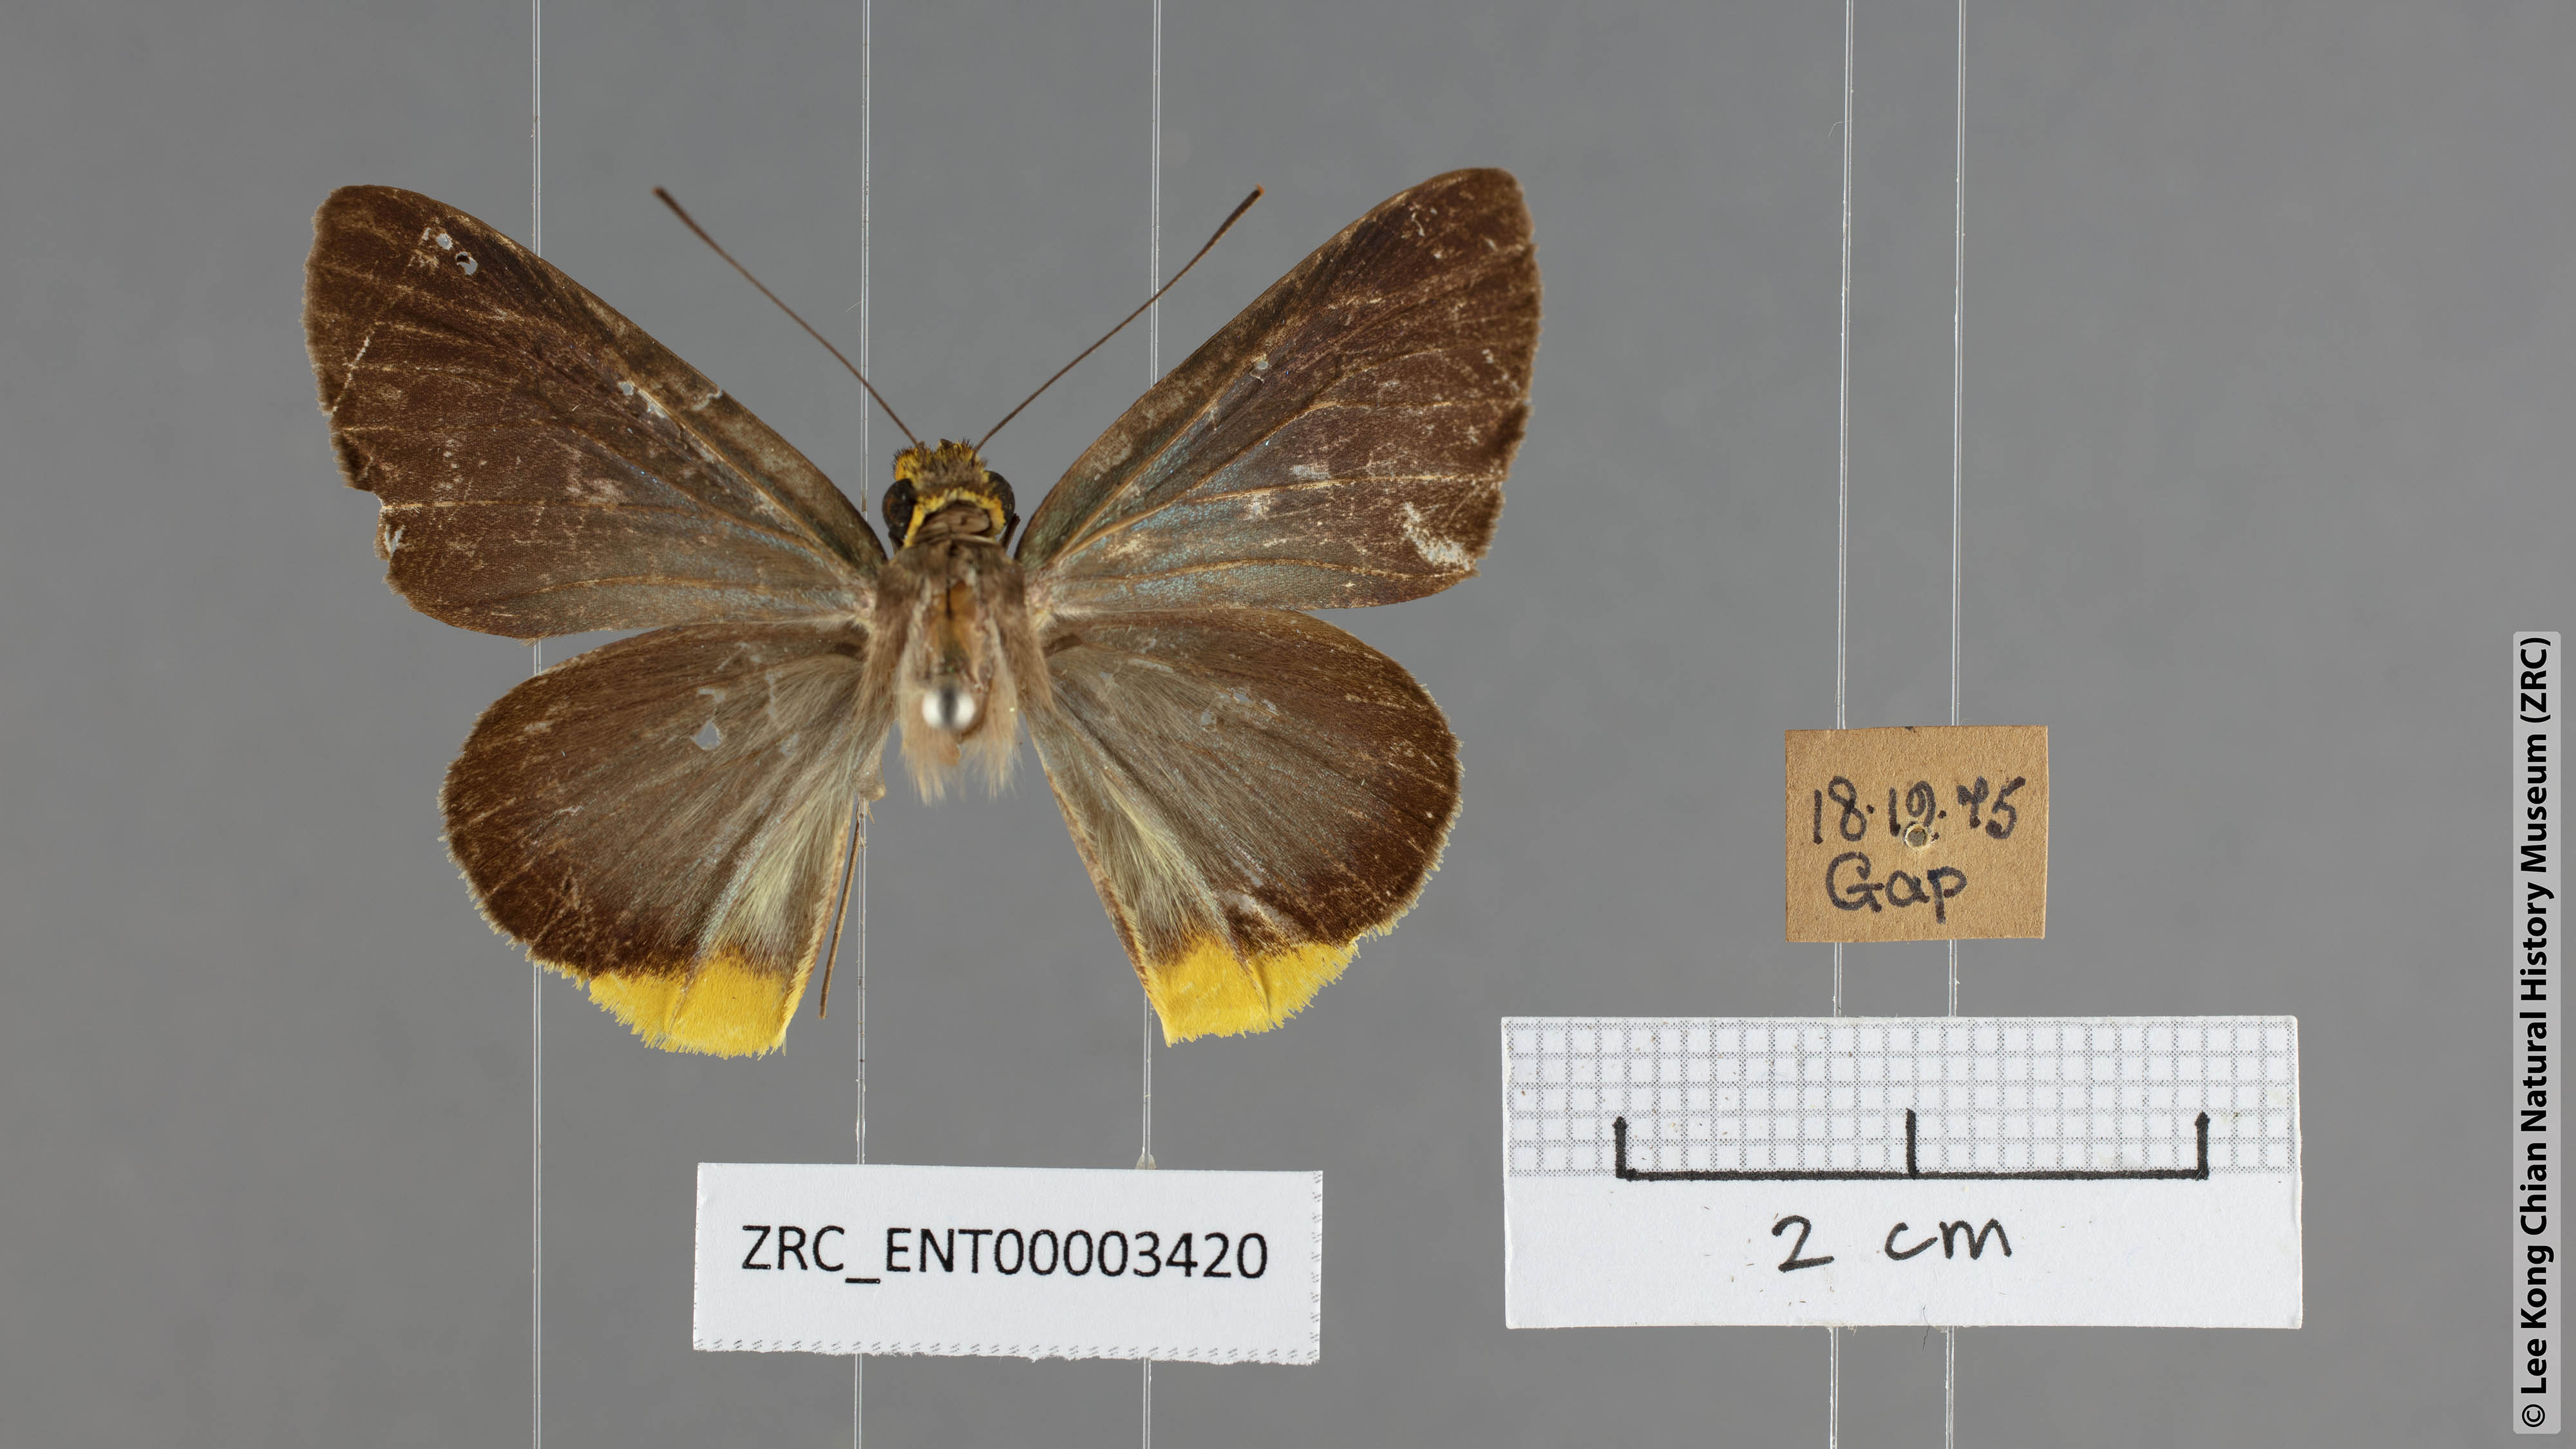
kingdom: Animalia
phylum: Arthropoda
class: Insecta
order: Lepidoptera
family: Hesperiidae
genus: Pirdana
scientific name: Pirdana hyela
